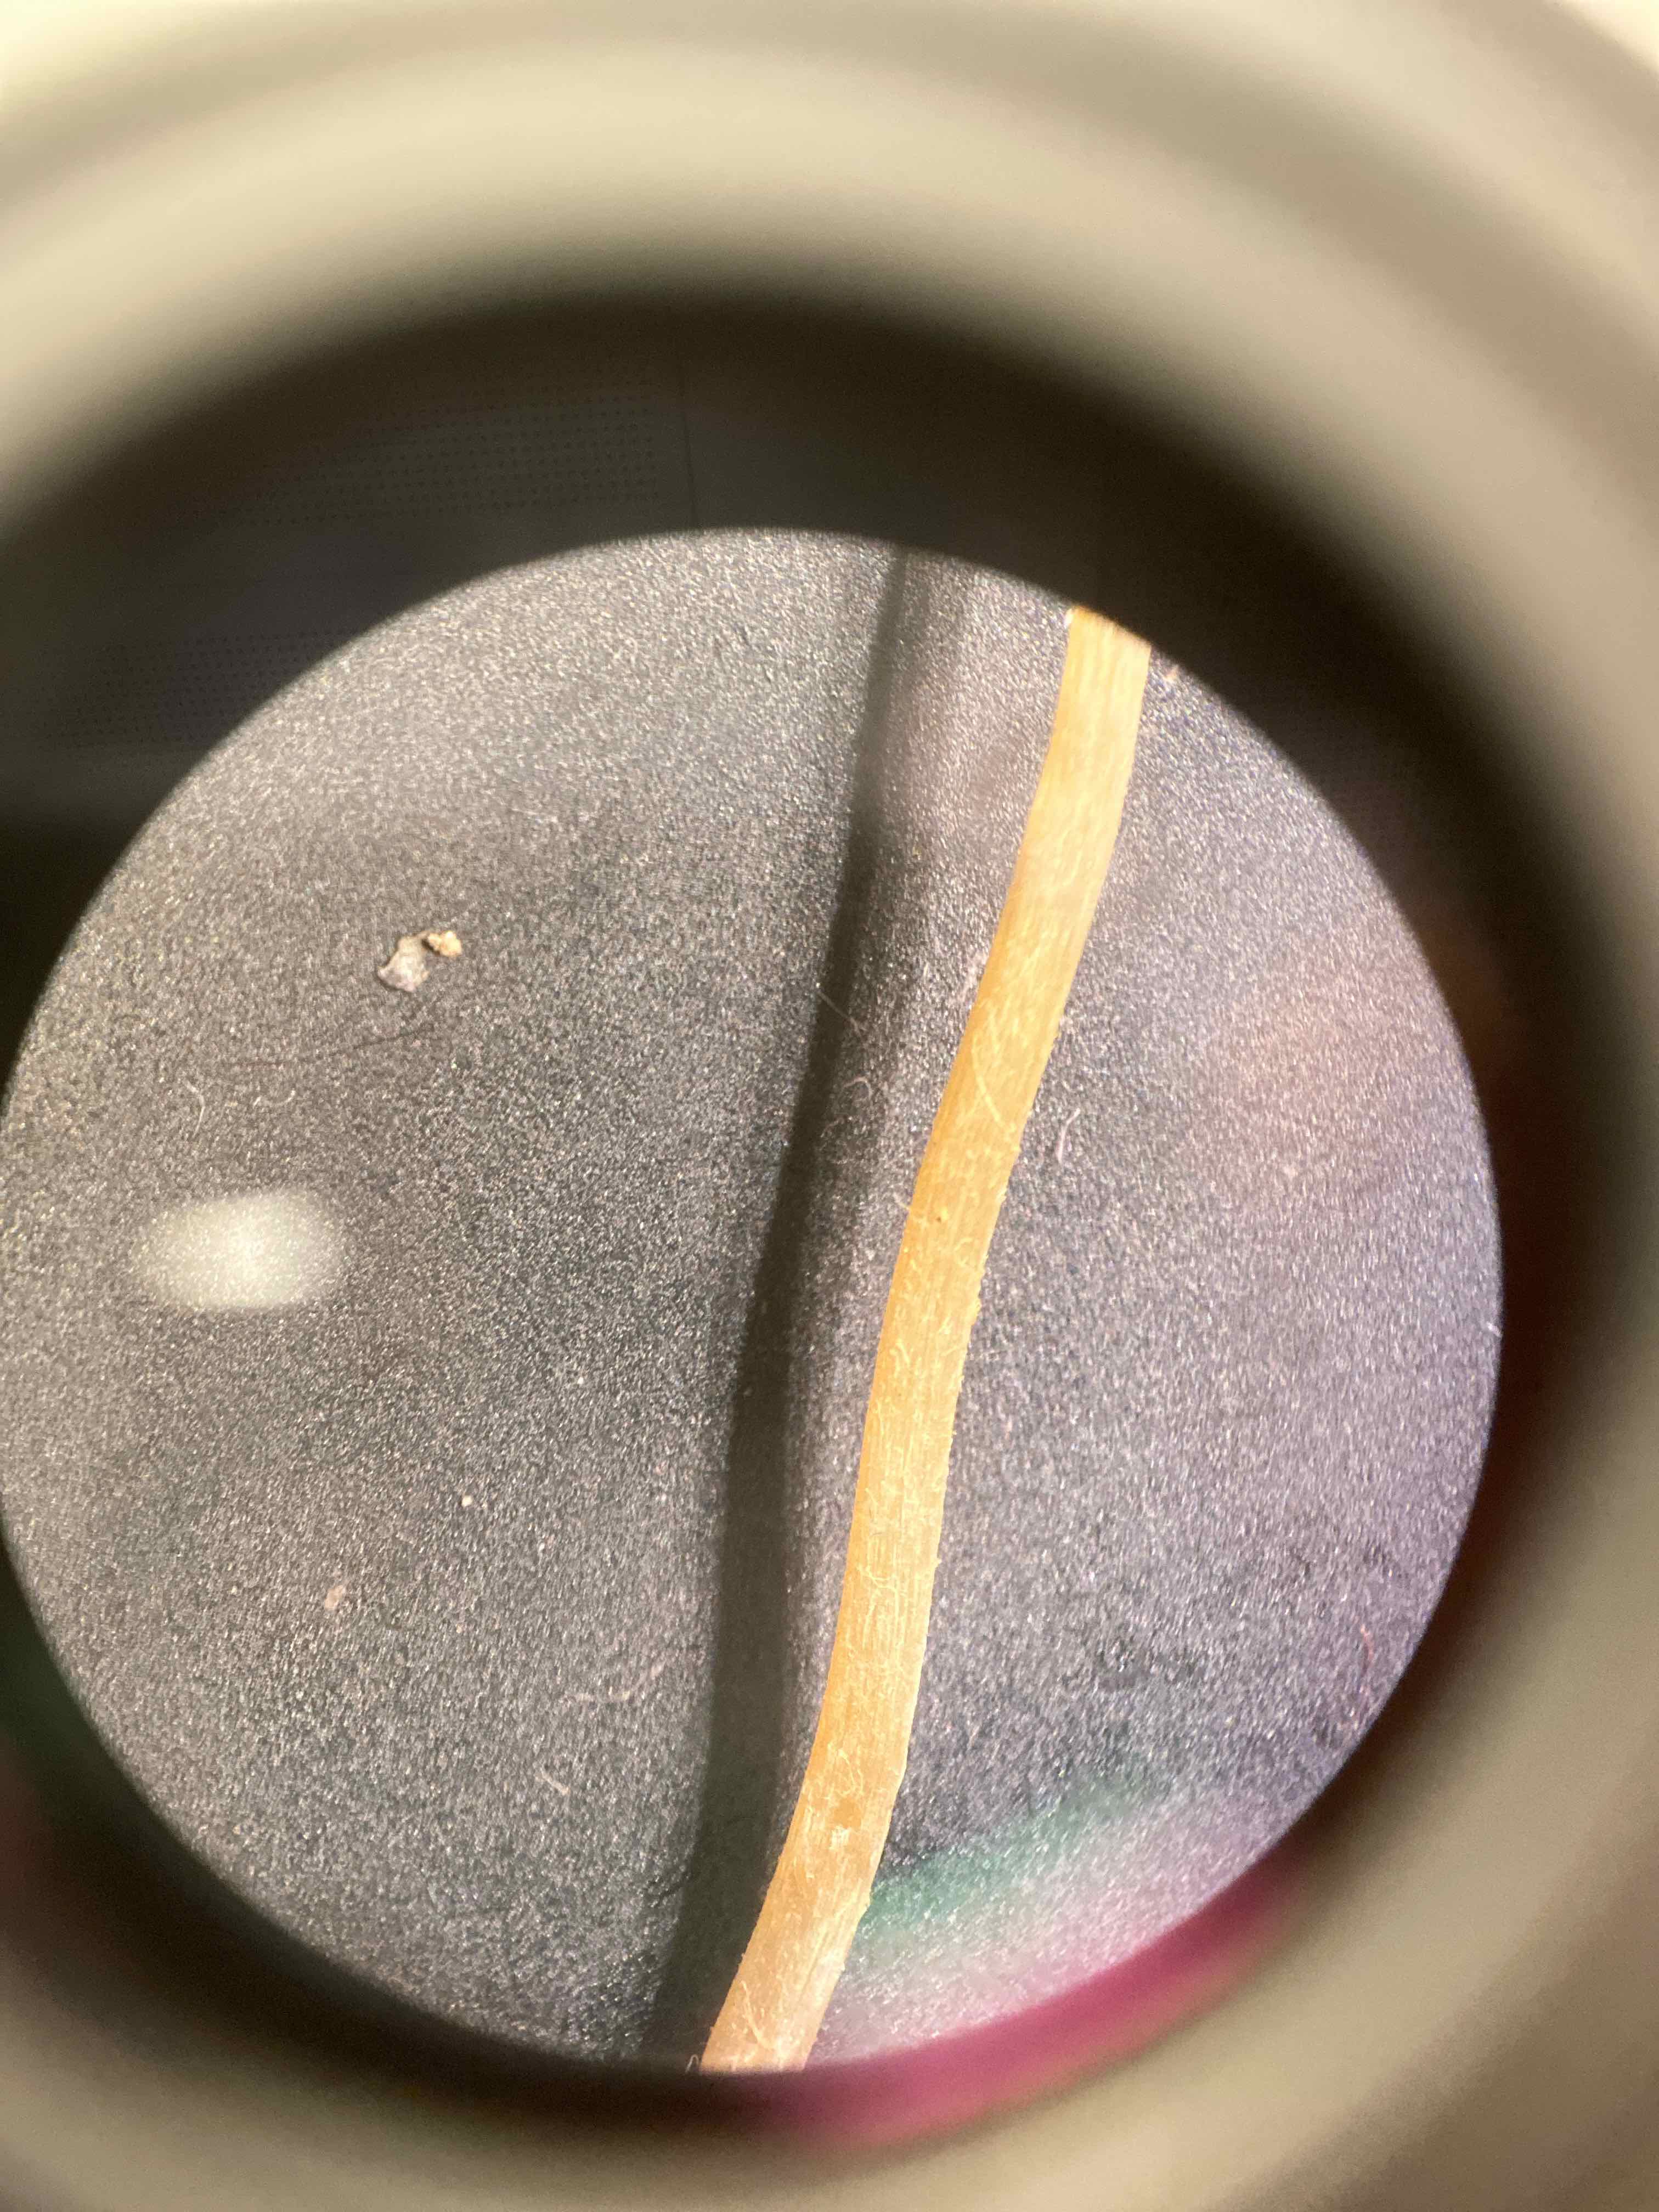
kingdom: Fungi
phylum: Basidiomycota
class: Agaricomycetes
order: Agaricales
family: Bolbitiaceae
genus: Pholiotina
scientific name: Pholiotina sulcata
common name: plisseret dansehat
